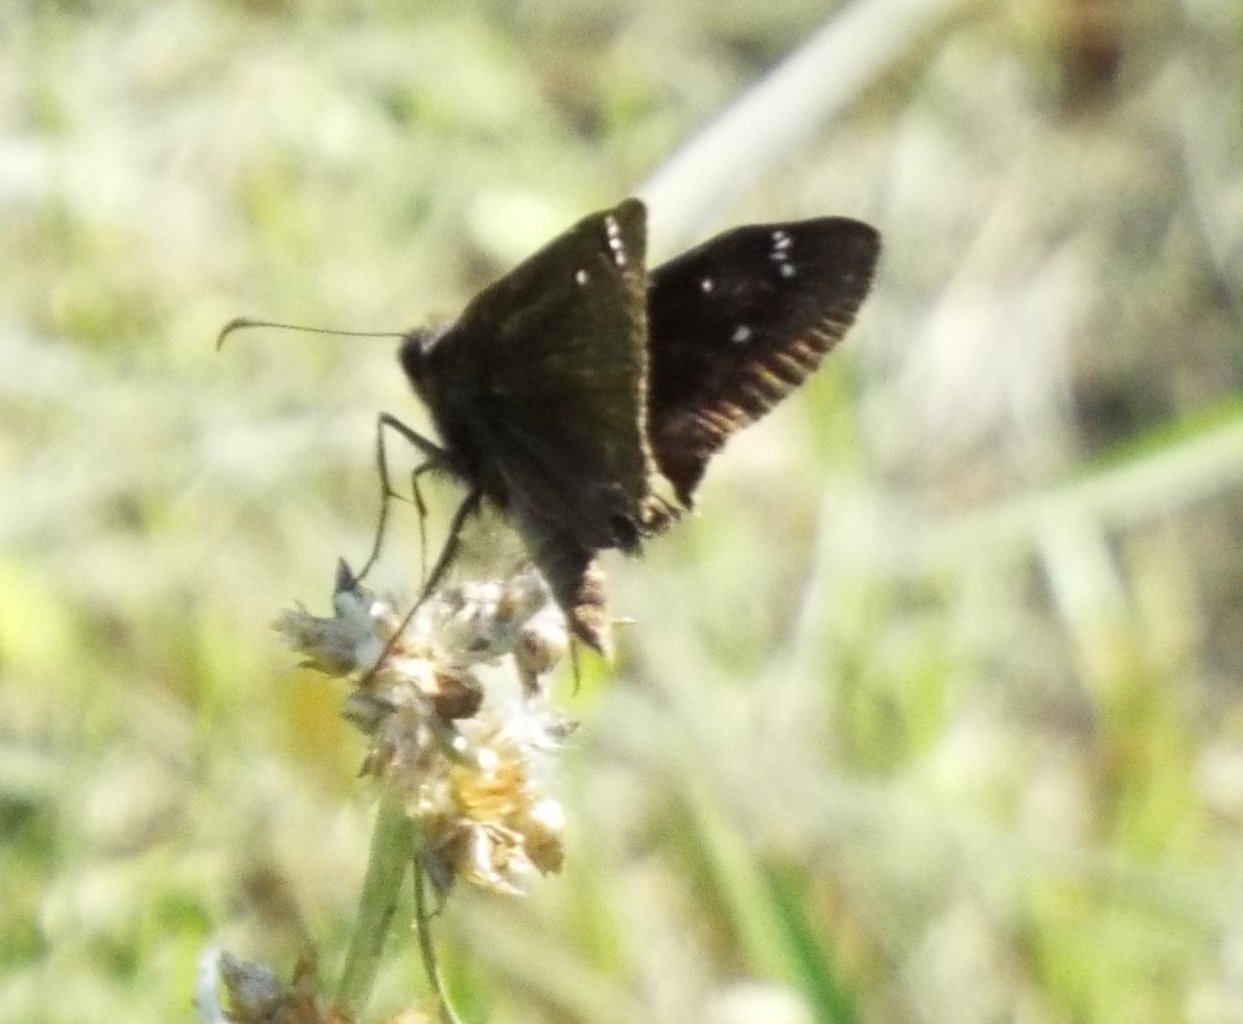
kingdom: Animalia
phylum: Arthropoda
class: Insecta
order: Lepidoptera
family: Hesperiidae
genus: Gesta
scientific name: Gesta
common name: Horace's Duskywing
